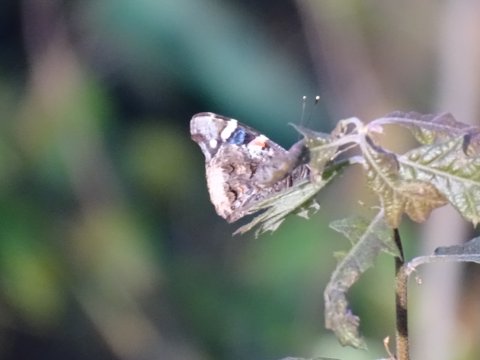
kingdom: Animalia
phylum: Arthropoda
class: Insecta
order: Lepidoptera
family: Nymphalidae
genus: Vanessa
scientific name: Vanessa atalanta
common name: Red Admiral
